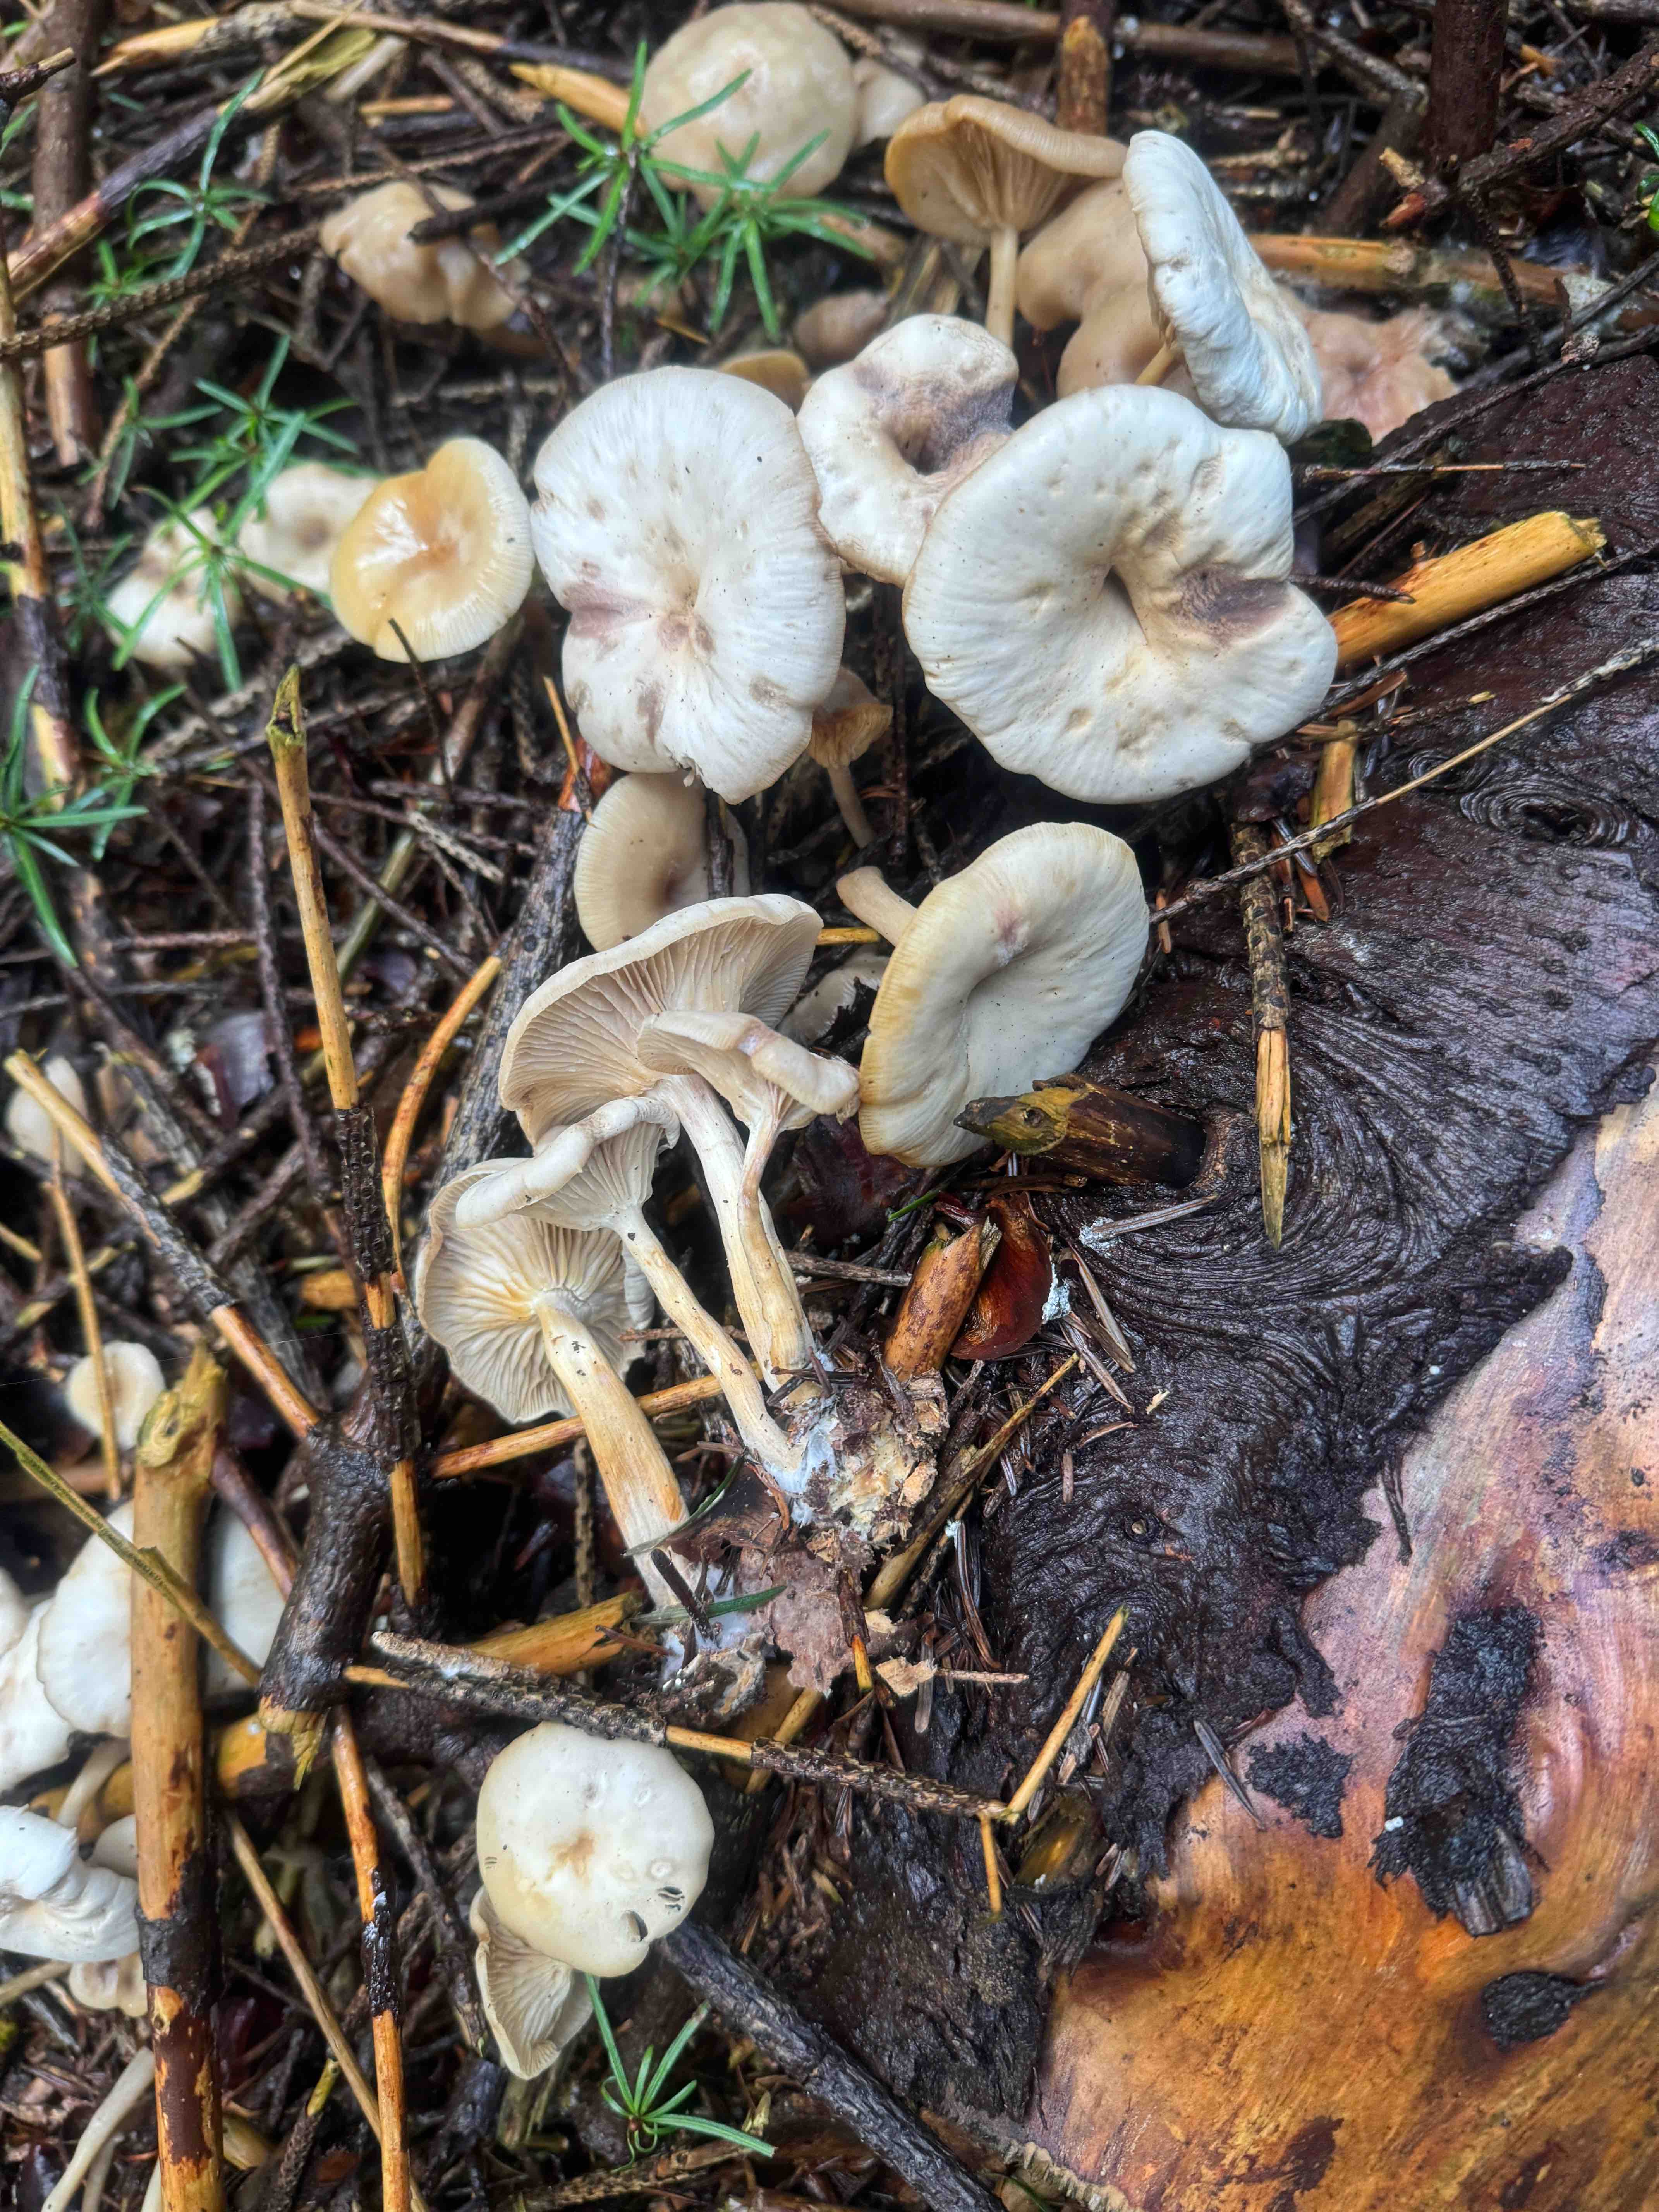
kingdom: Fungi
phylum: Basidiomycota
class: Agaricomycetes
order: Agaricales
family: Tricholomataceae
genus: Clitocybe
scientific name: Clitocybe fragrans
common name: vellugtende tragthat
